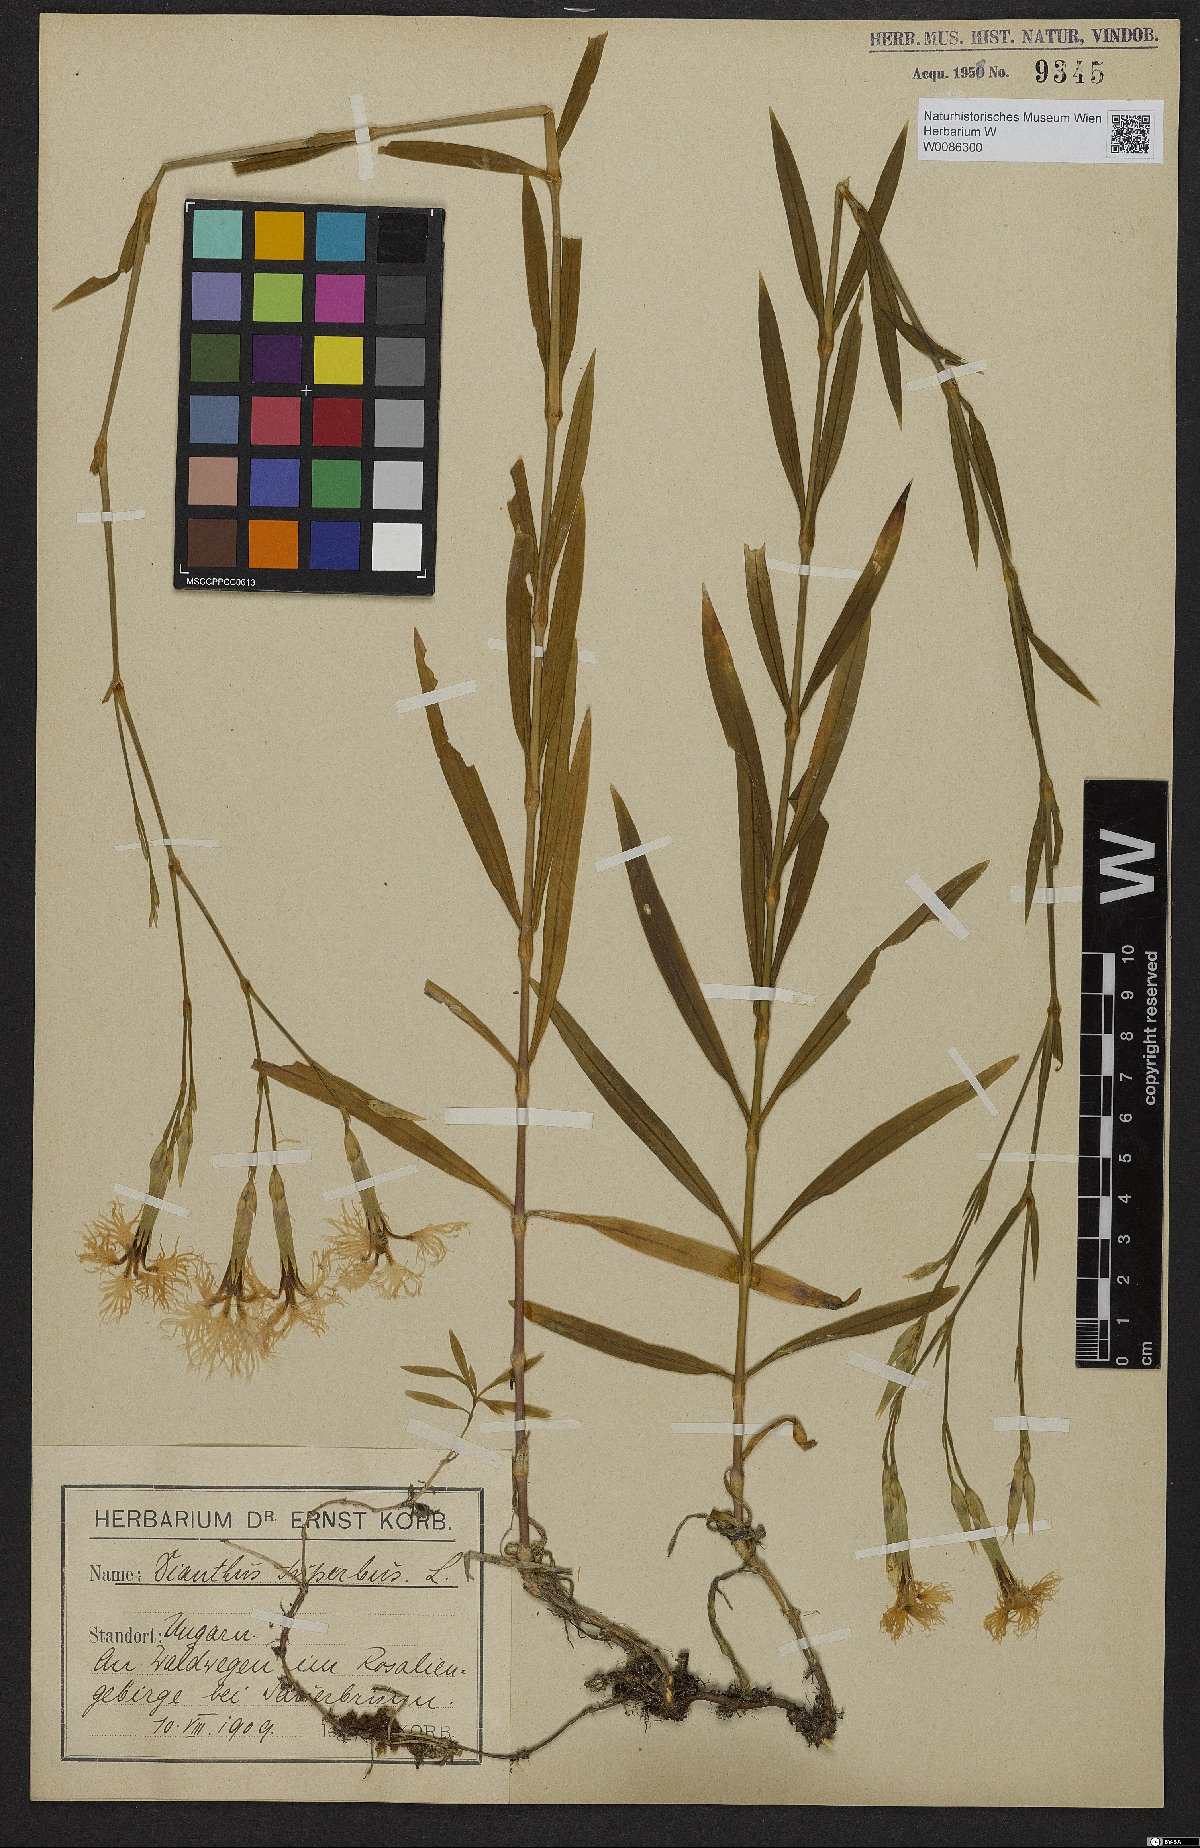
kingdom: Plantae
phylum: Tracheophyta
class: Magnoliopsida
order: Caryophyllales
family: Caryophyllaceae
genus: Dianthus
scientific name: Dianthus superbus
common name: Fringed pink
